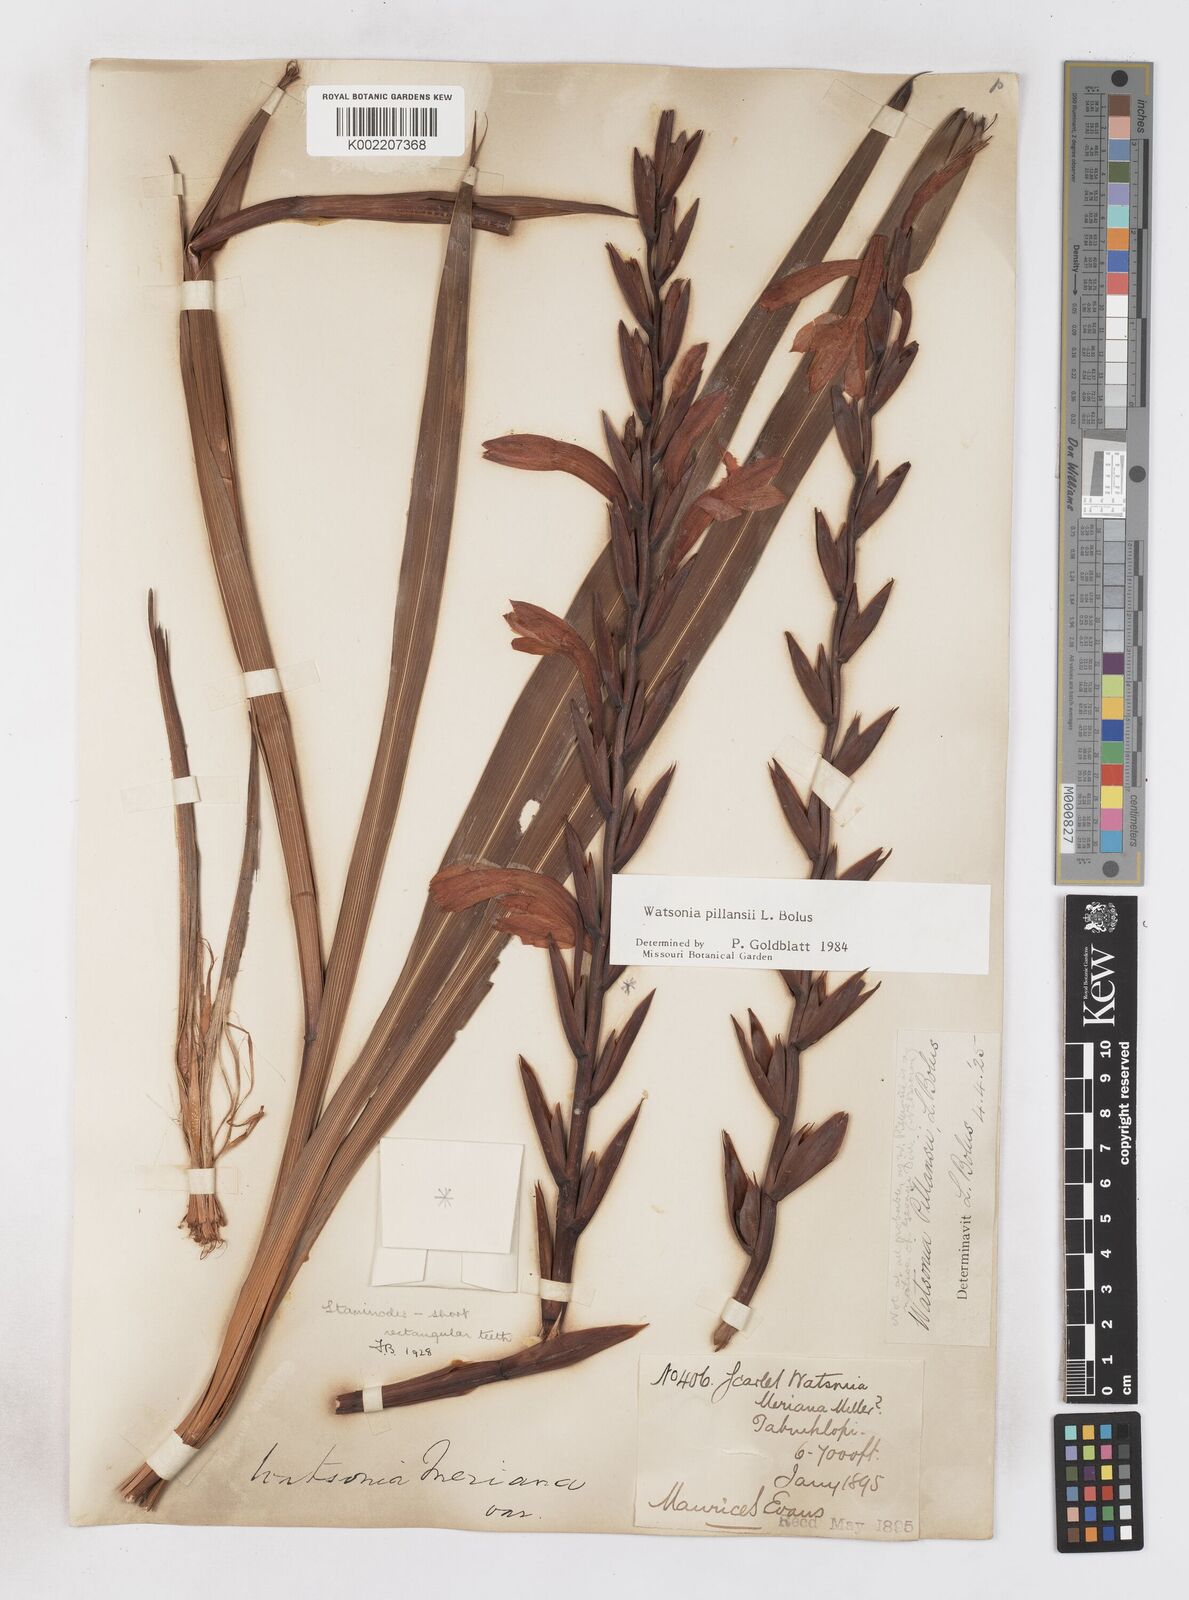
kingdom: Plantae
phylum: Tracheophyta
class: Liliopsida
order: Asparagales
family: Iridaceae
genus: Watsonia
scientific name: Watsonia pillansii
